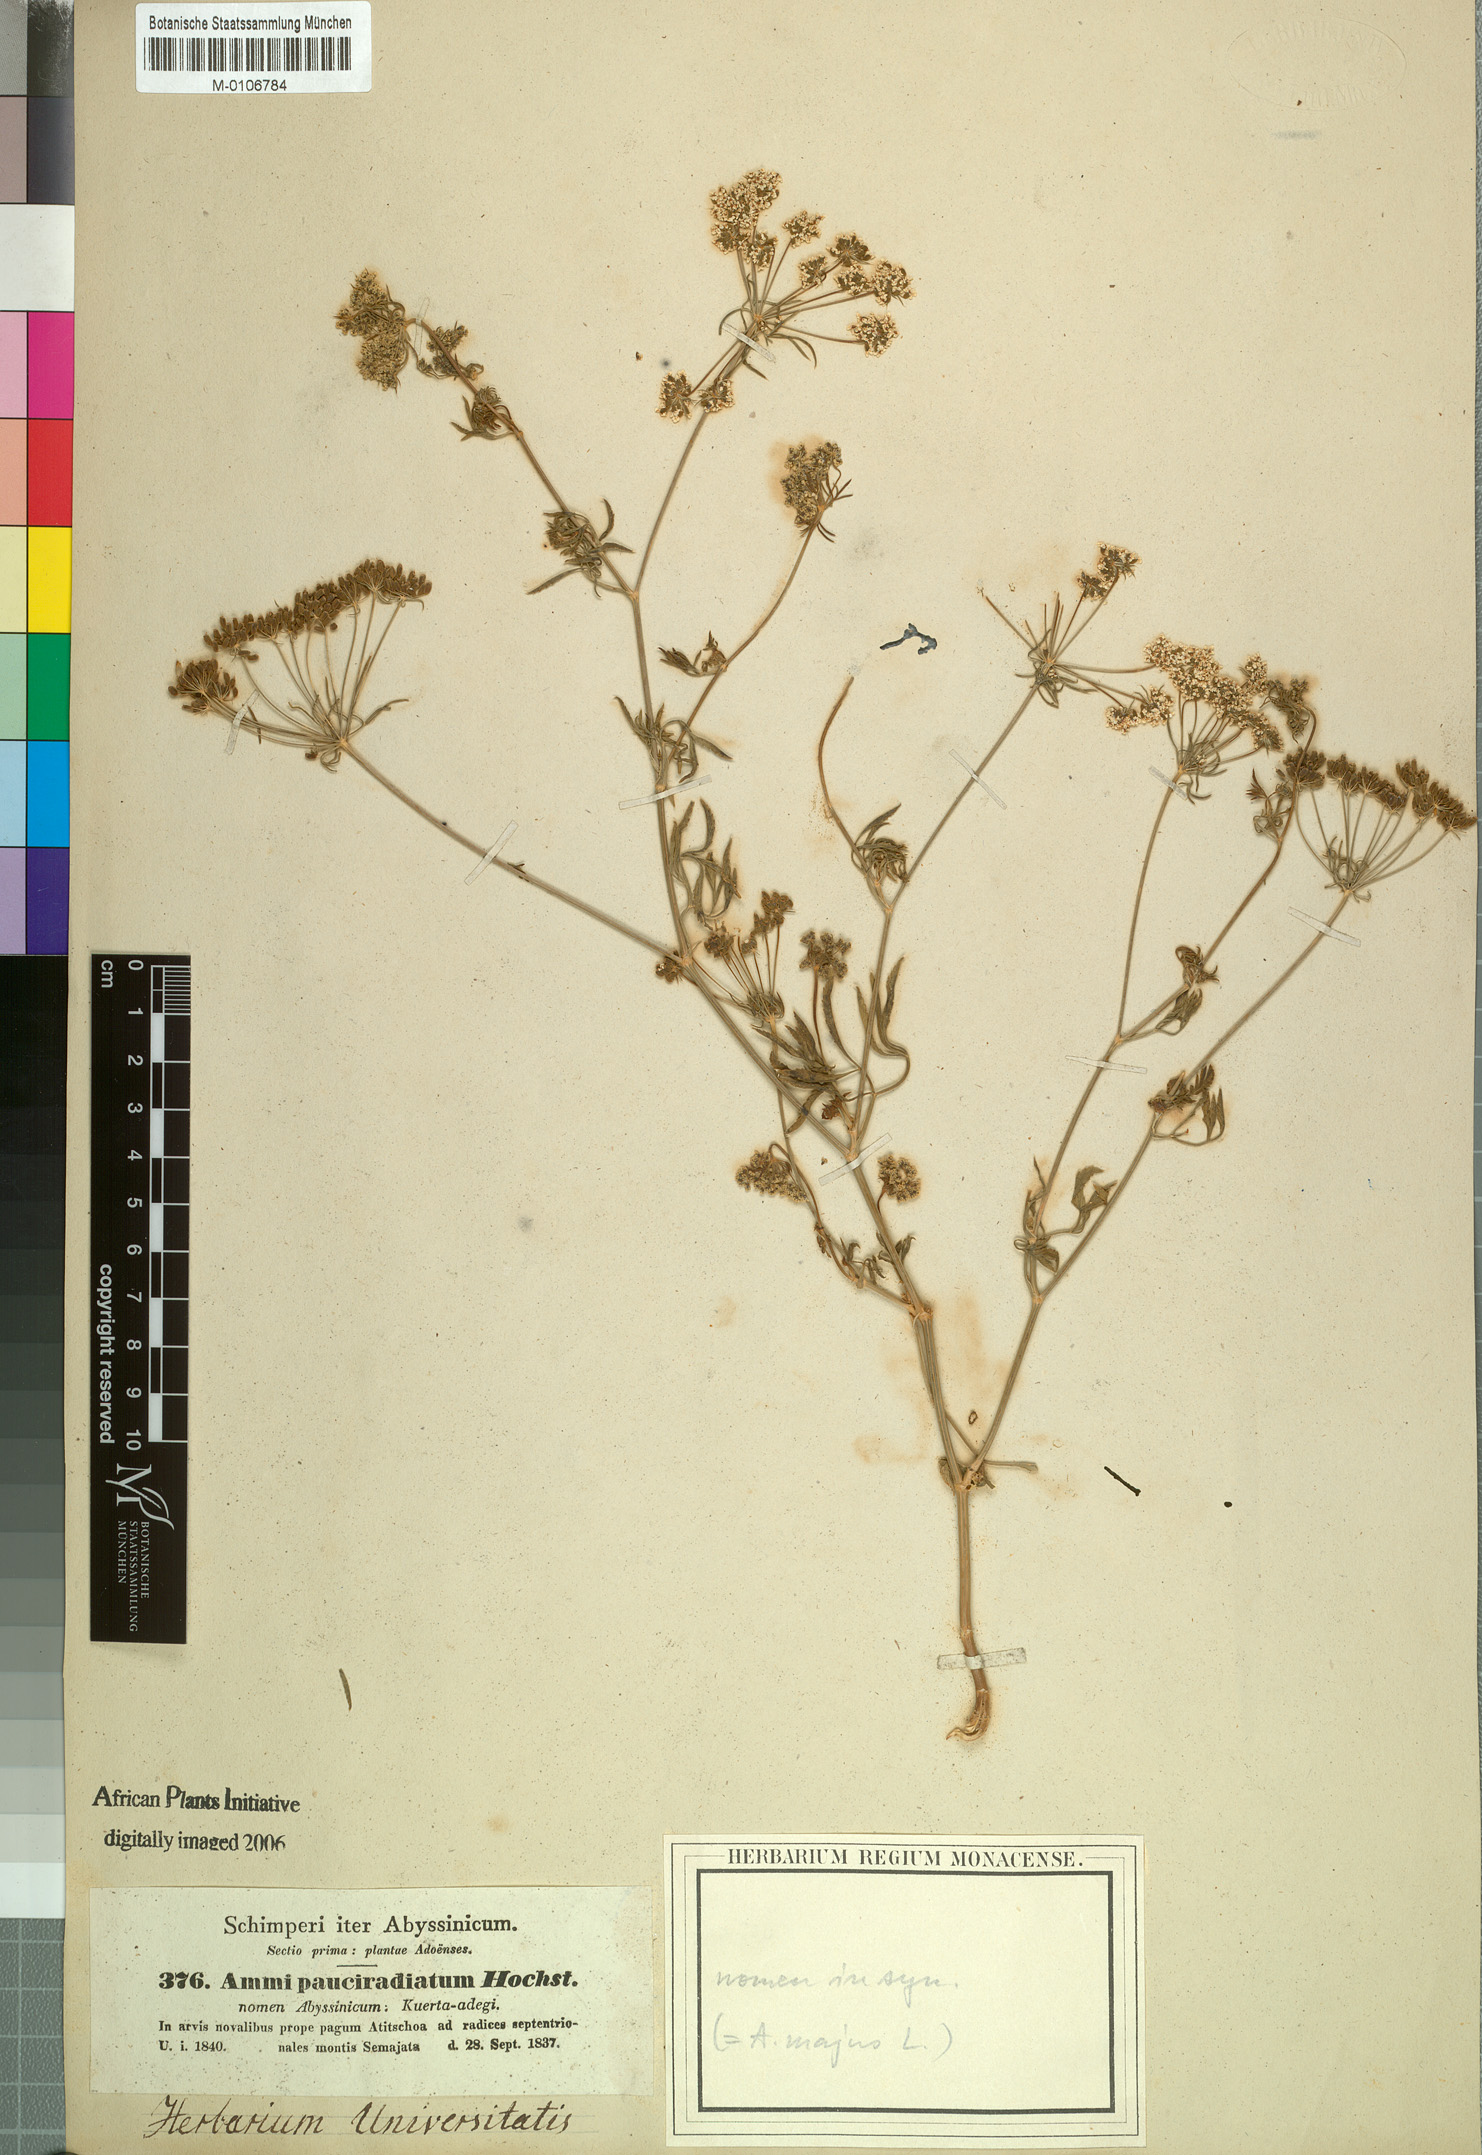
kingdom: Plantae
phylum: Tracheophyta
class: Magnoliopsida
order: Apiales
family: Apiaceae
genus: Ammi
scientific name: Ammi majus
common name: Bullwort
